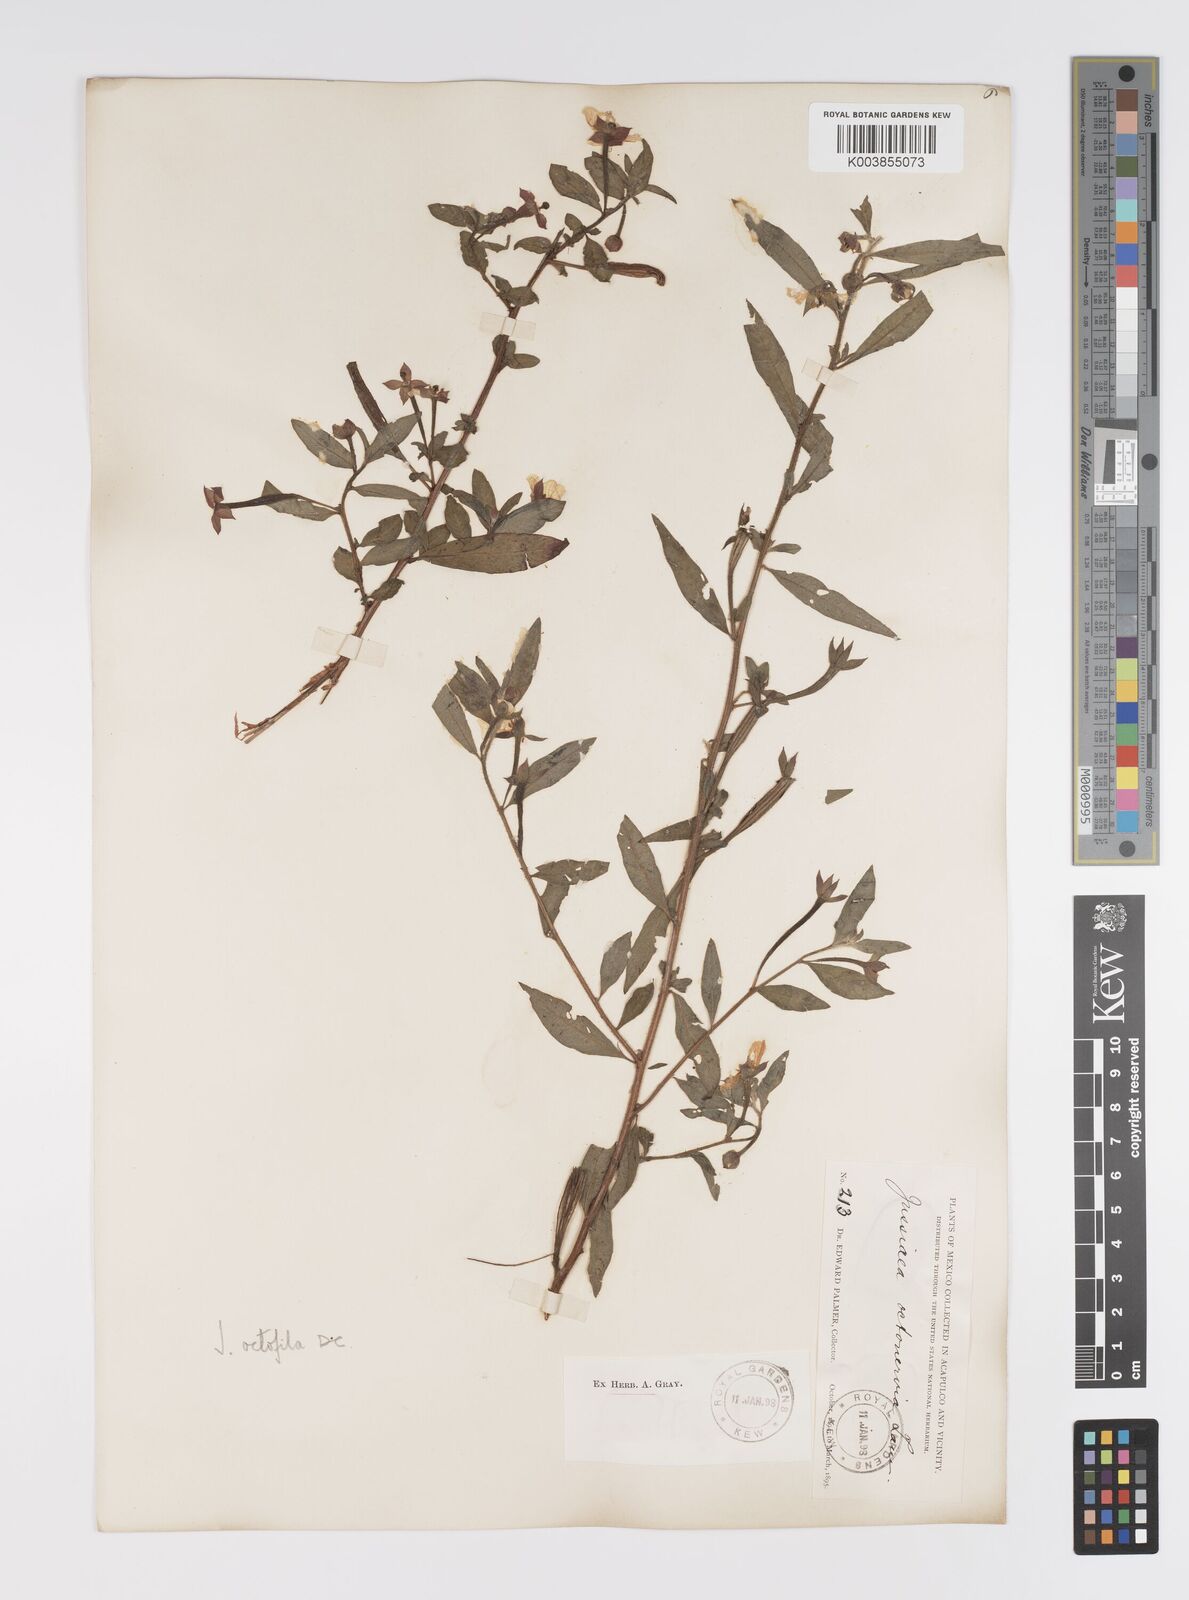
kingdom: Plantae
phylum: Tracheophyta
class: Magnoliopsida
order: Myrtales
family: Onagraceae
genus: Ludwigia
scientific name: Ludwigia octovalvis
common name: Water-primrose
